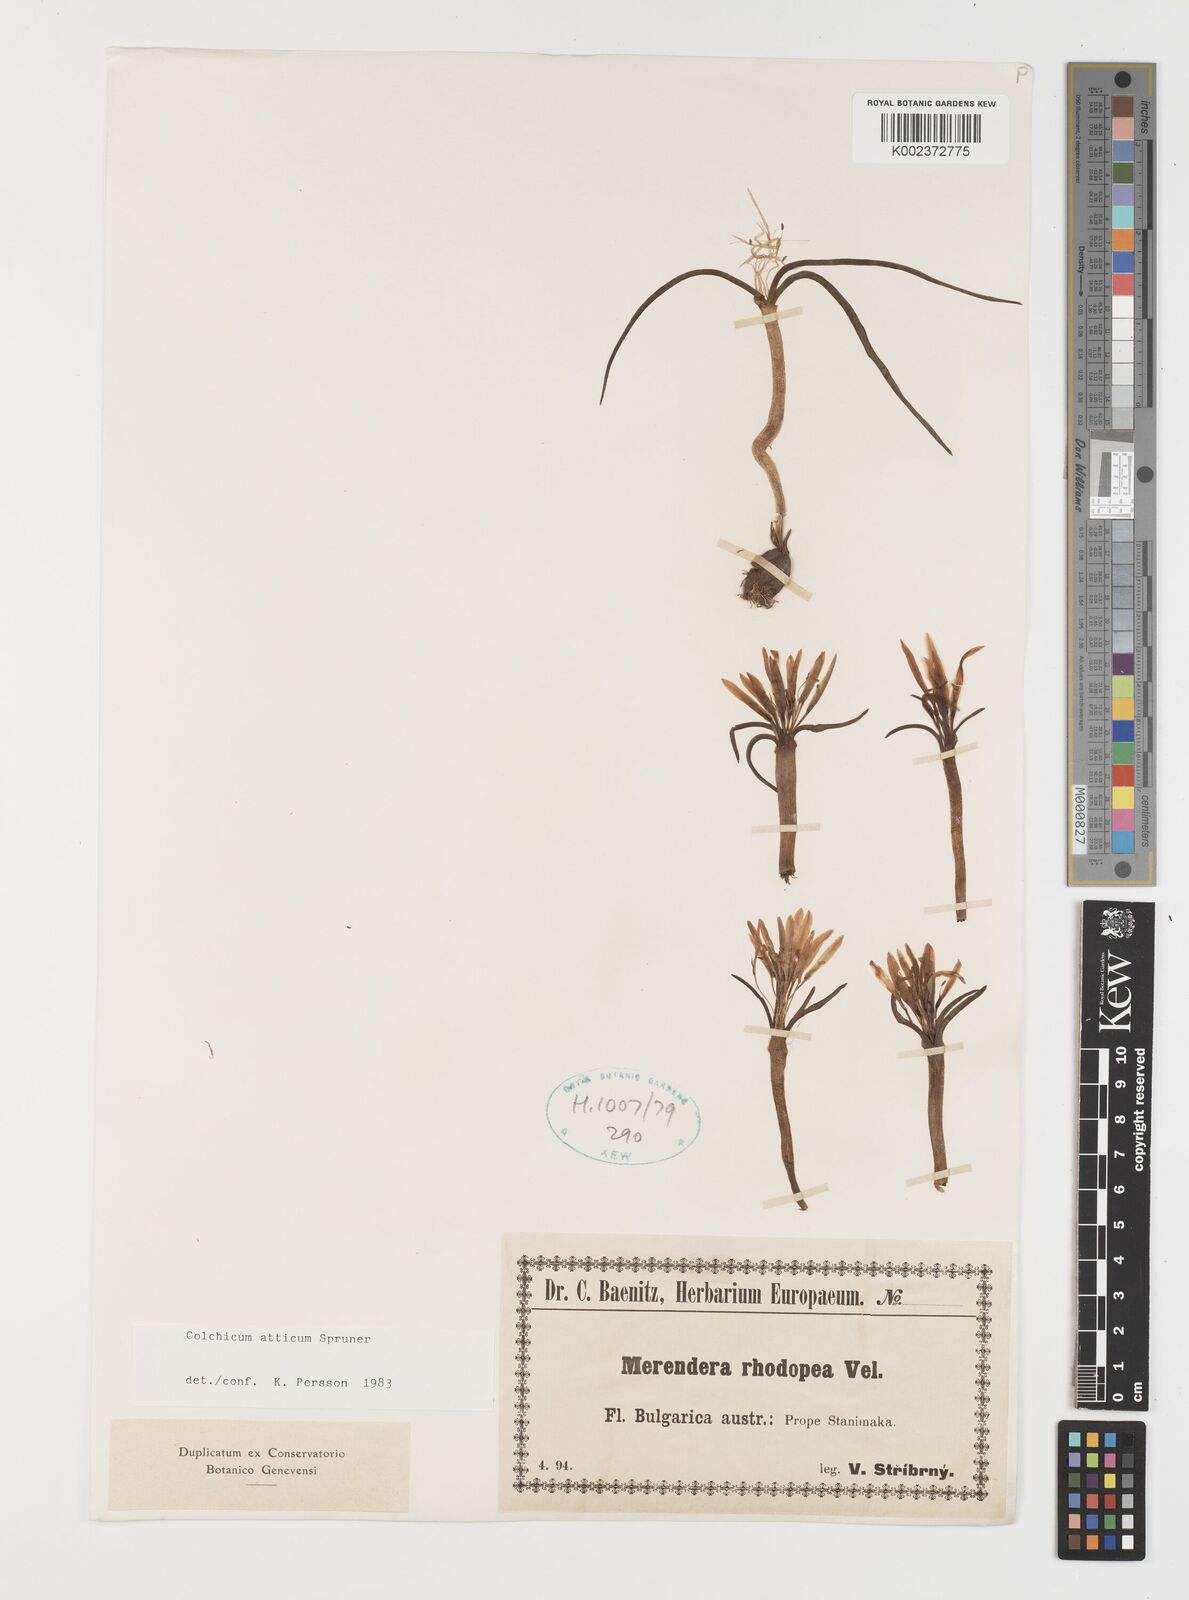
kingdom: Plantae
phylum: Tracheophyta
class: Liliopsida
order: Liliales
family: Colchicaceae
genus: Colchicum
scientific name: Colchicum atticum
